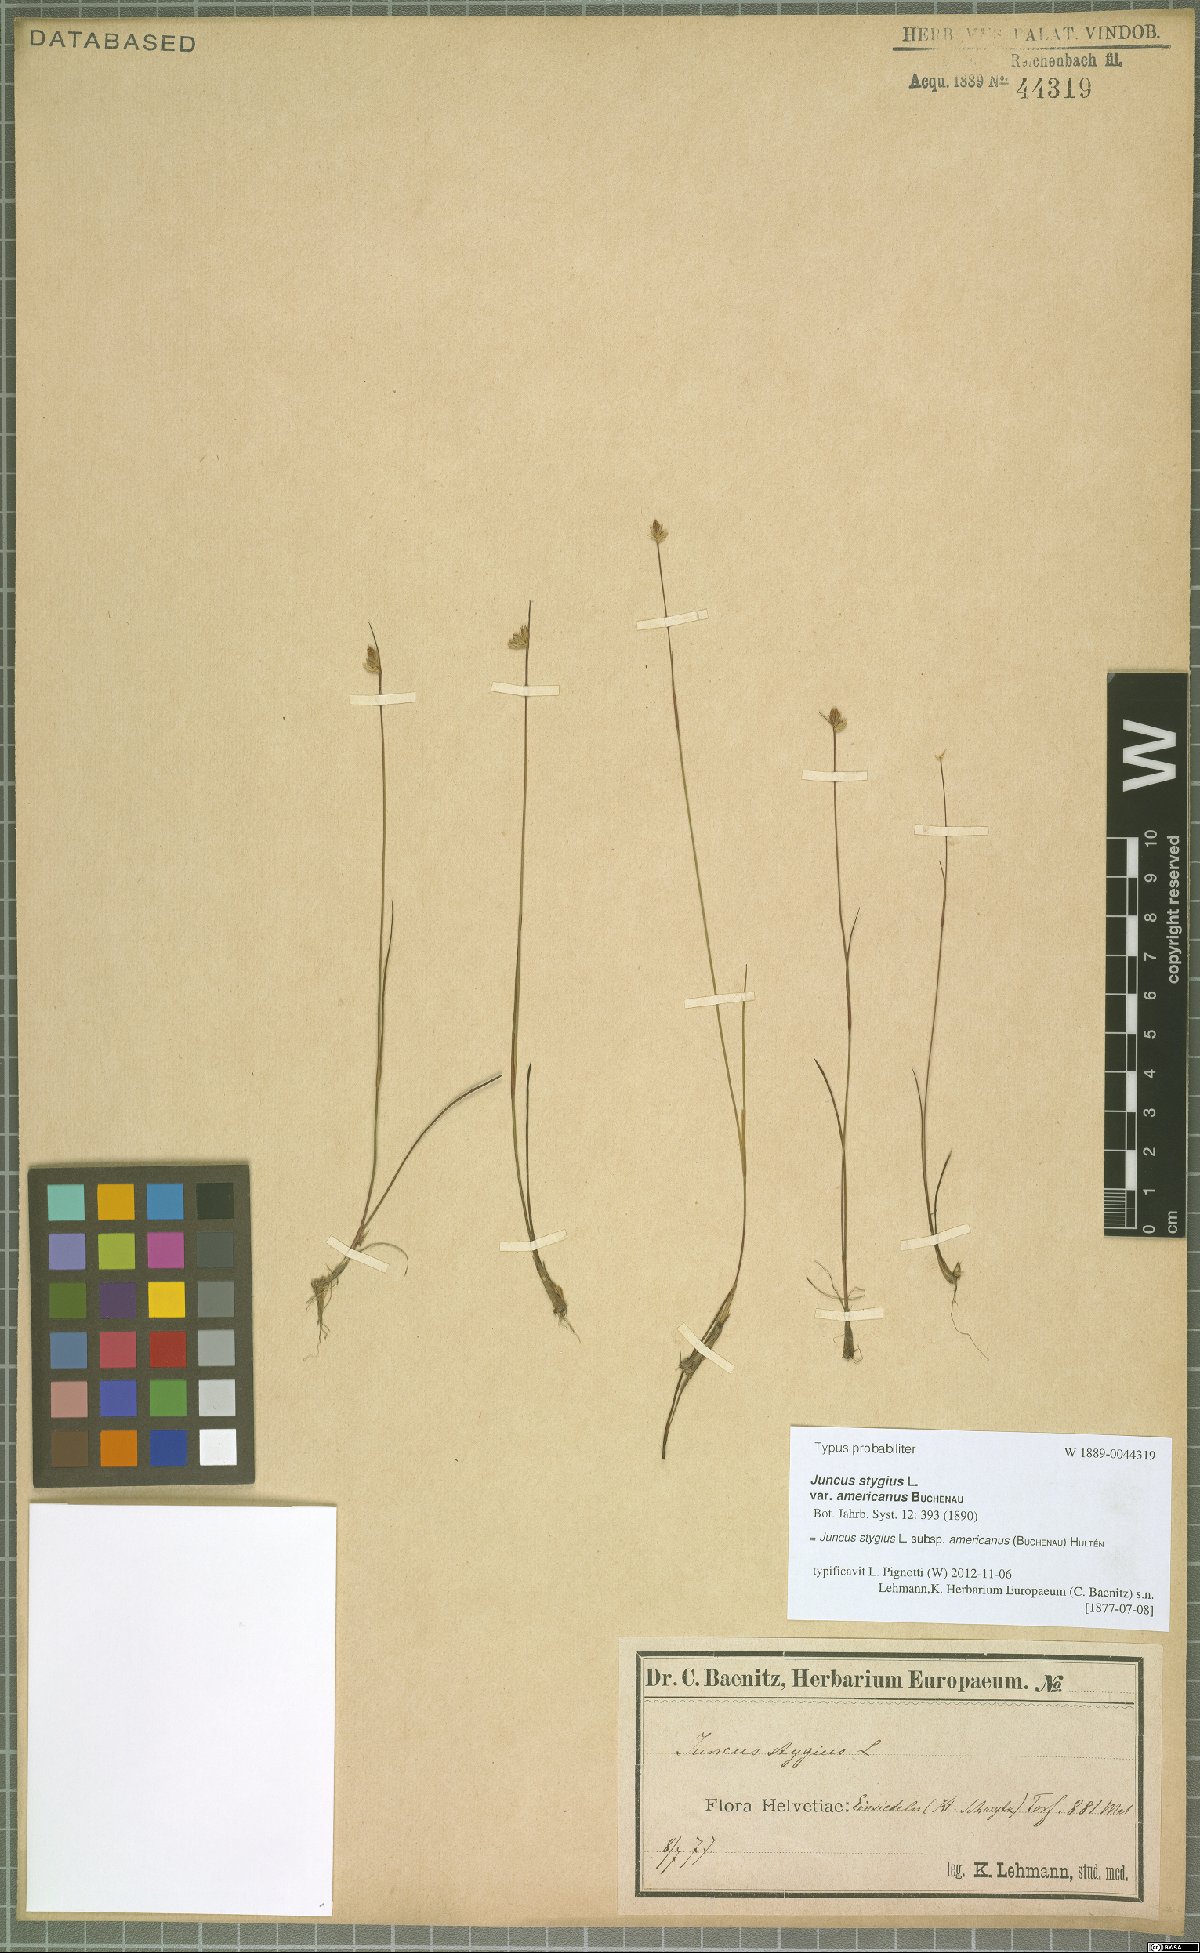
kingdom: Plantae
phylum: Tracheophyta
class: Liliopsida
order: Poales
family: Juncaceae
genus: Juncus
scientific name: Juncus stygius
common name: Bog rush
